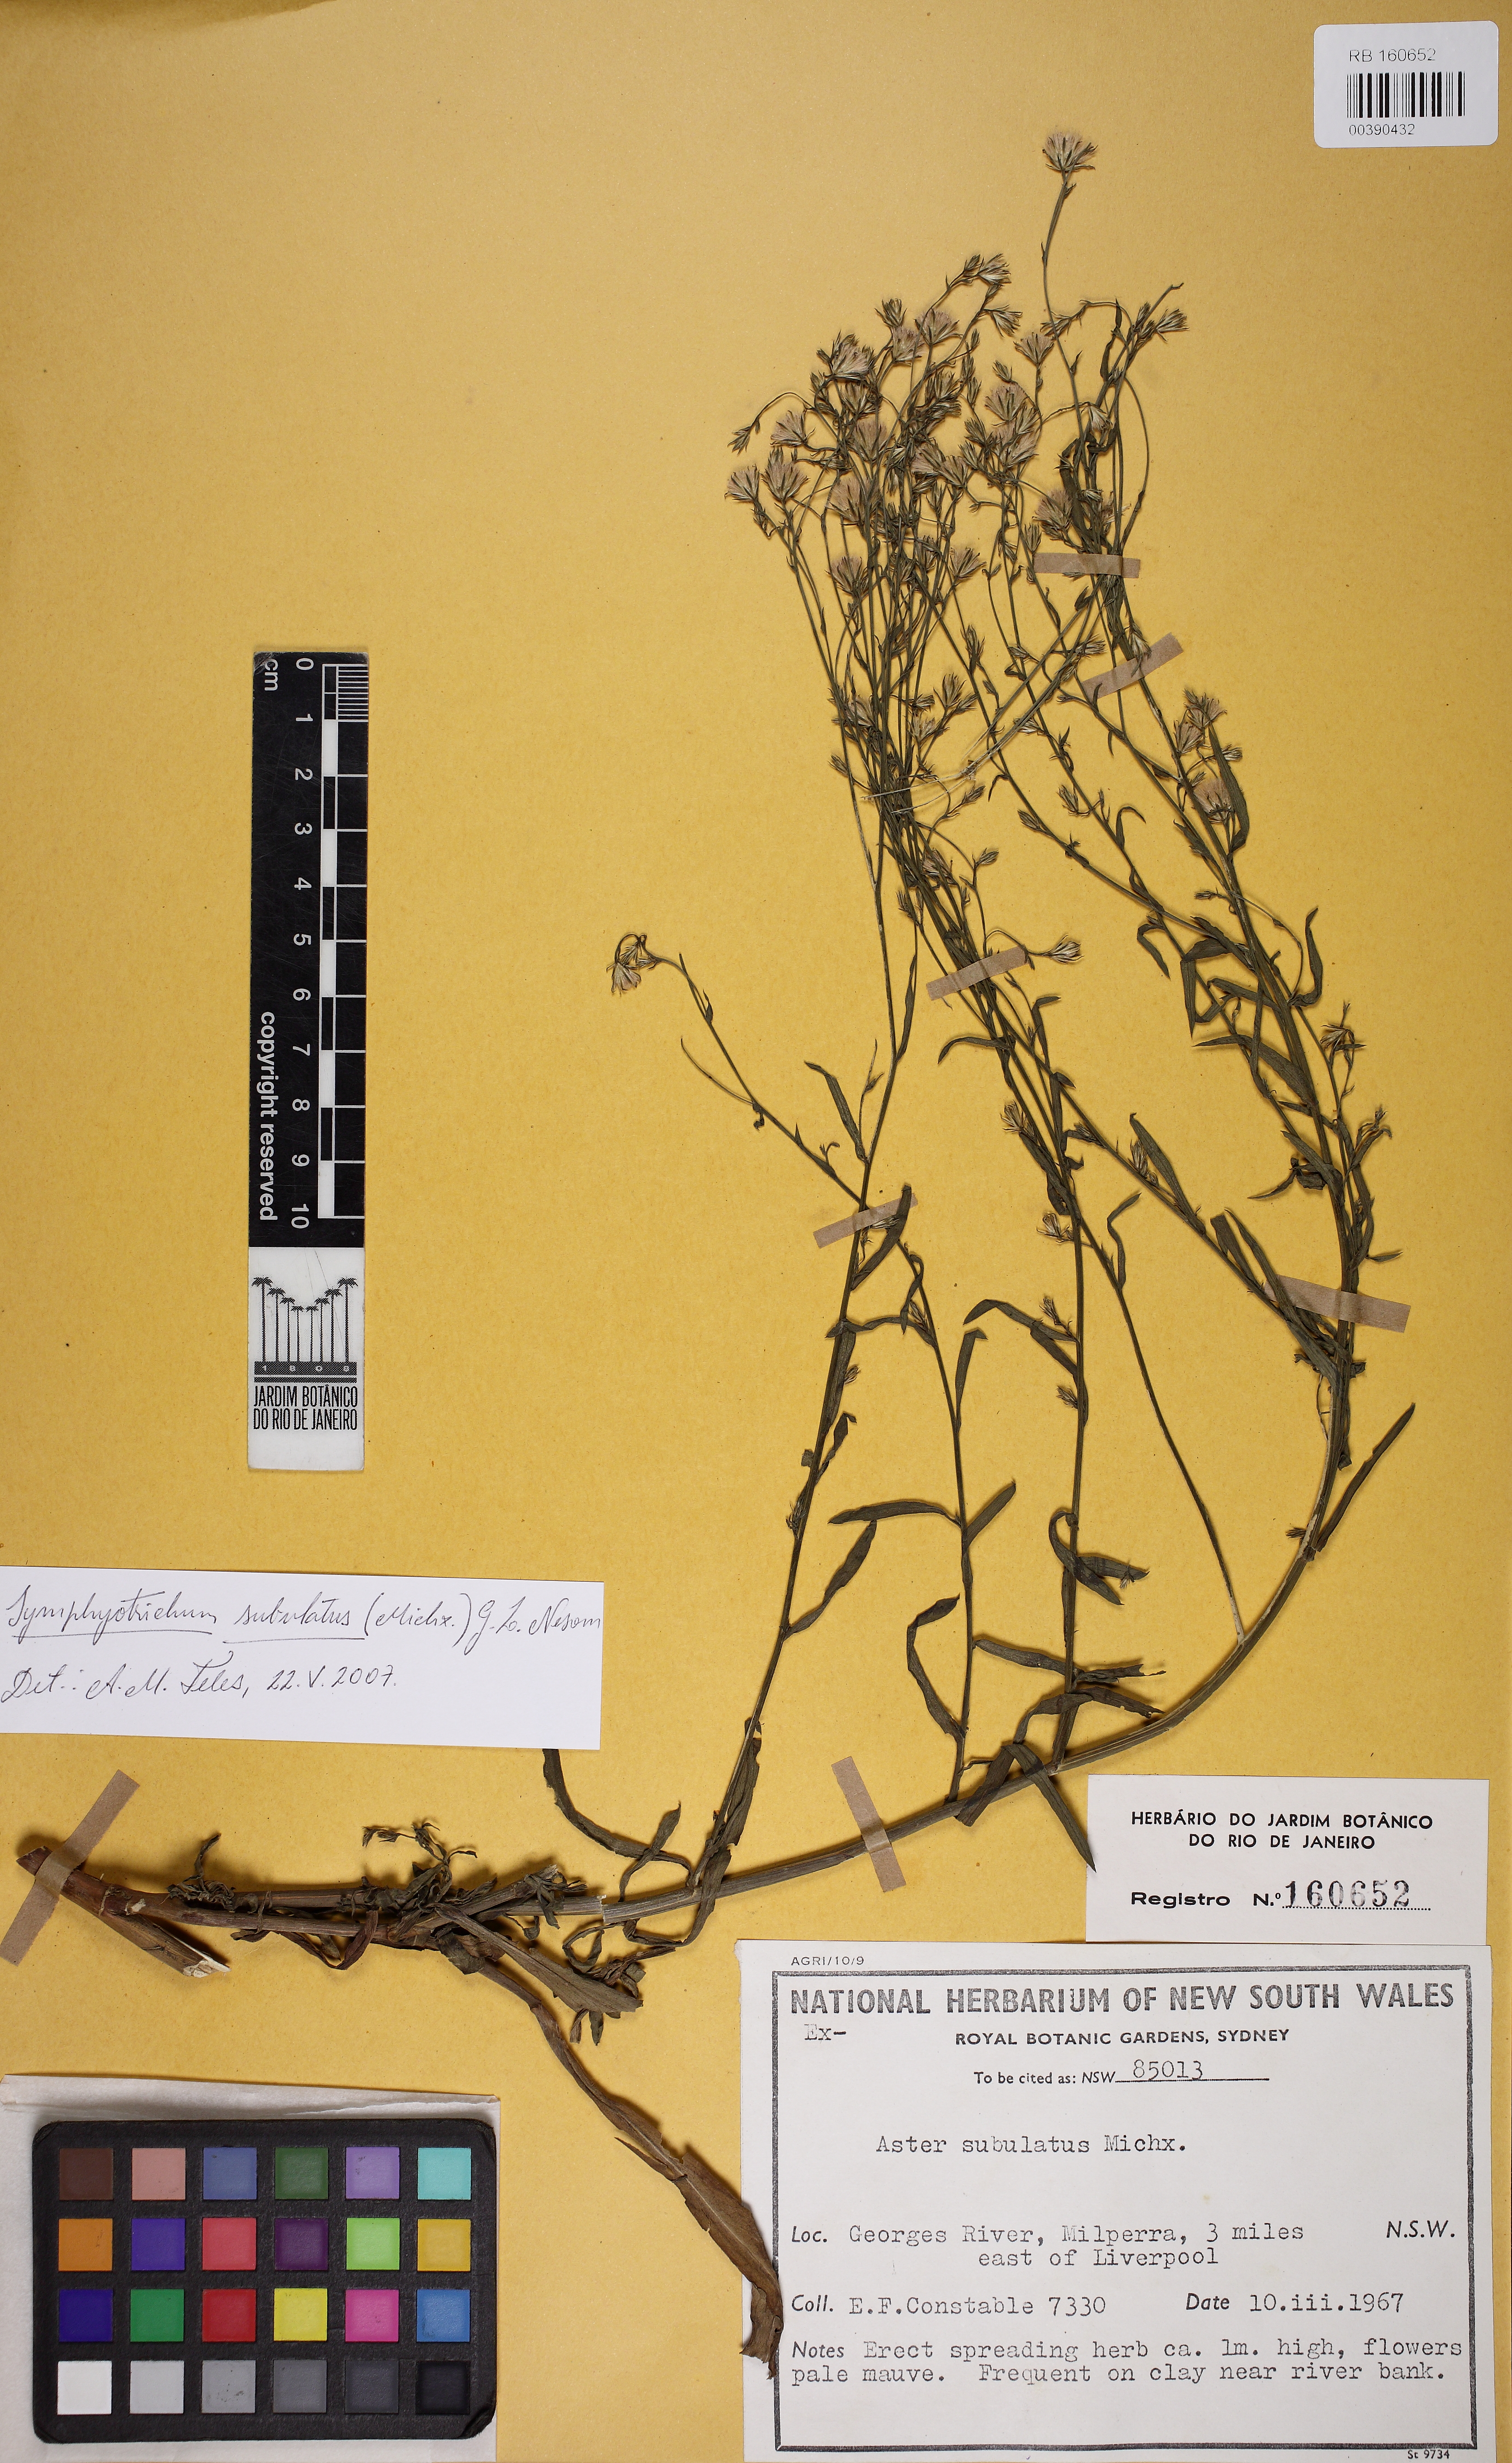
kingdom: Plantae
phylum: Tracheophyta
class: Magnoliopsida
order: Asterales
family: Asteraceae
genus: Symphyotrichum
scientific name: Symphyotrichum subulatum
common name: Annual saltmarsh aster
